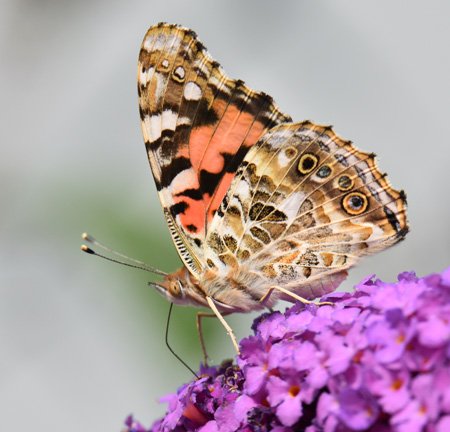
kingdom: Animalia
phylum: Arthropoda
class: Insecta
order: Lepidoptera
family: Nymphalidae
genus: Vanessa
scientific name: Vanessa cardui
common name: Painted Lady
